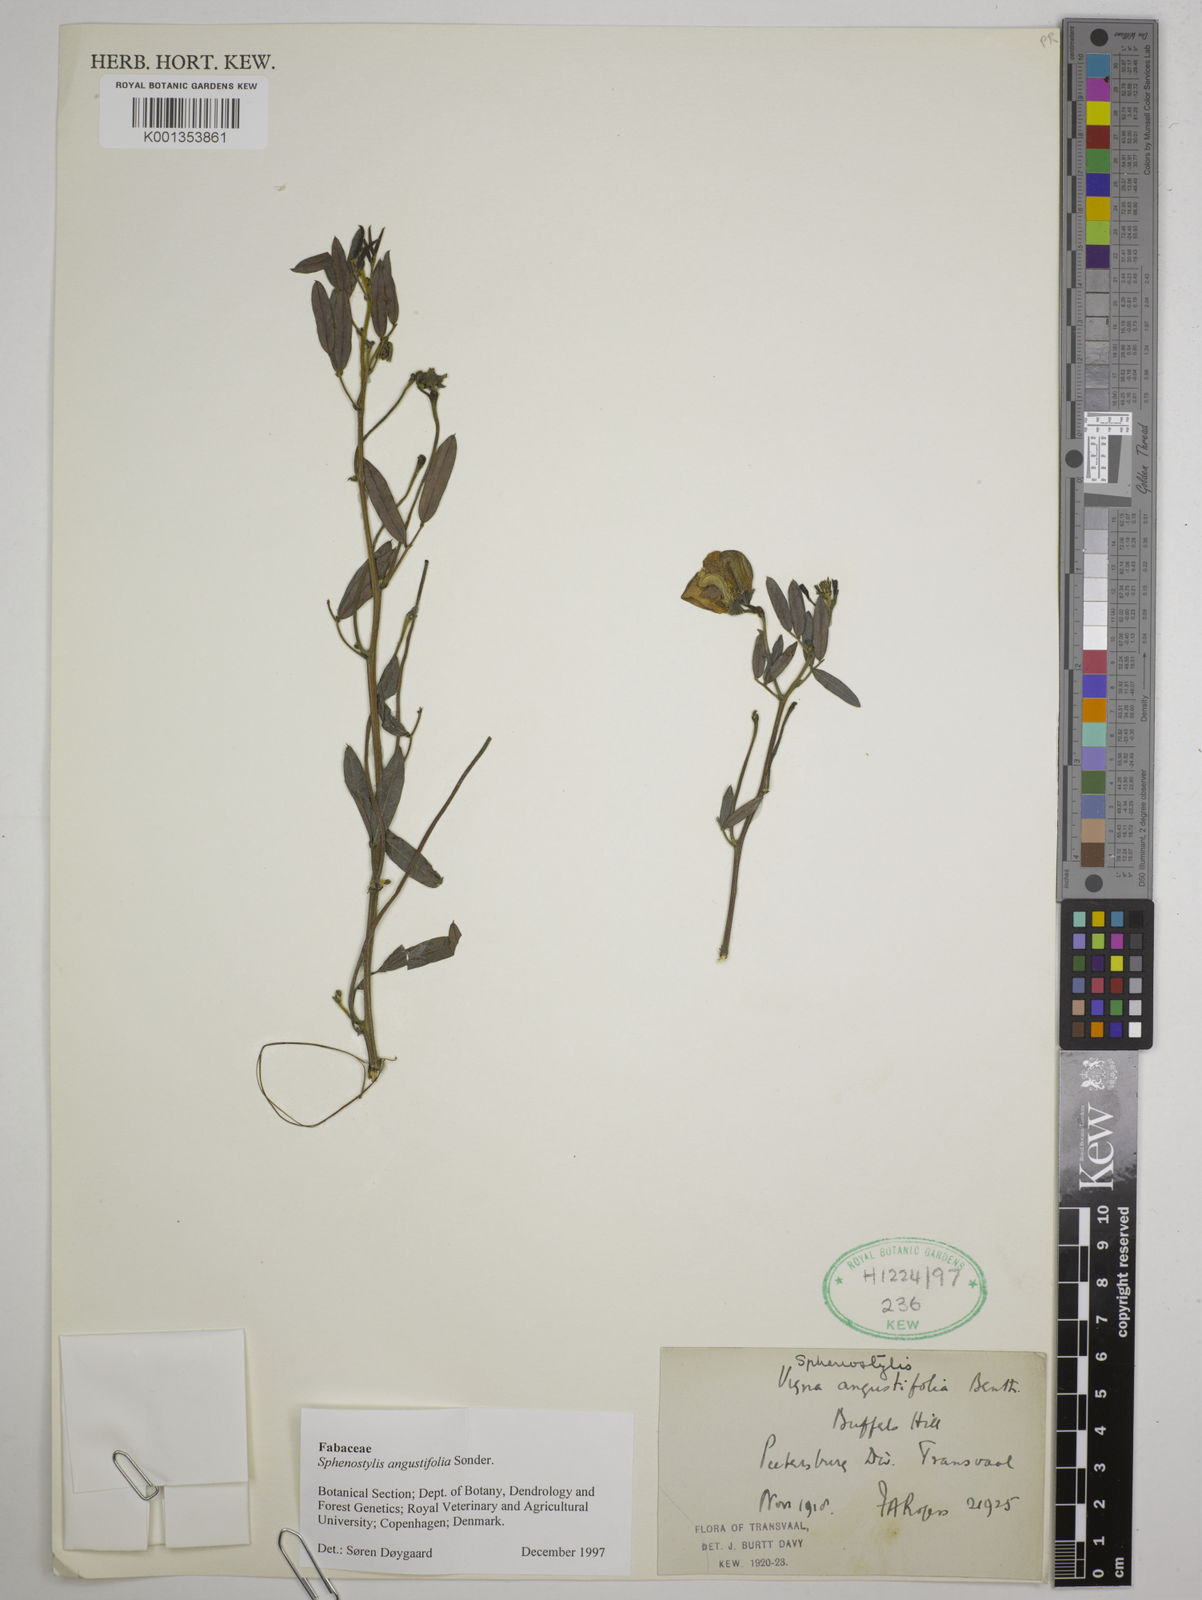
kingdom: Plantae
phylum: Tracheophyta
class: Magnoliopsida
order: Fabales
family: Fabaceae
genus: Sphenostylis
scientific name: Sphenostylis angustifolia
